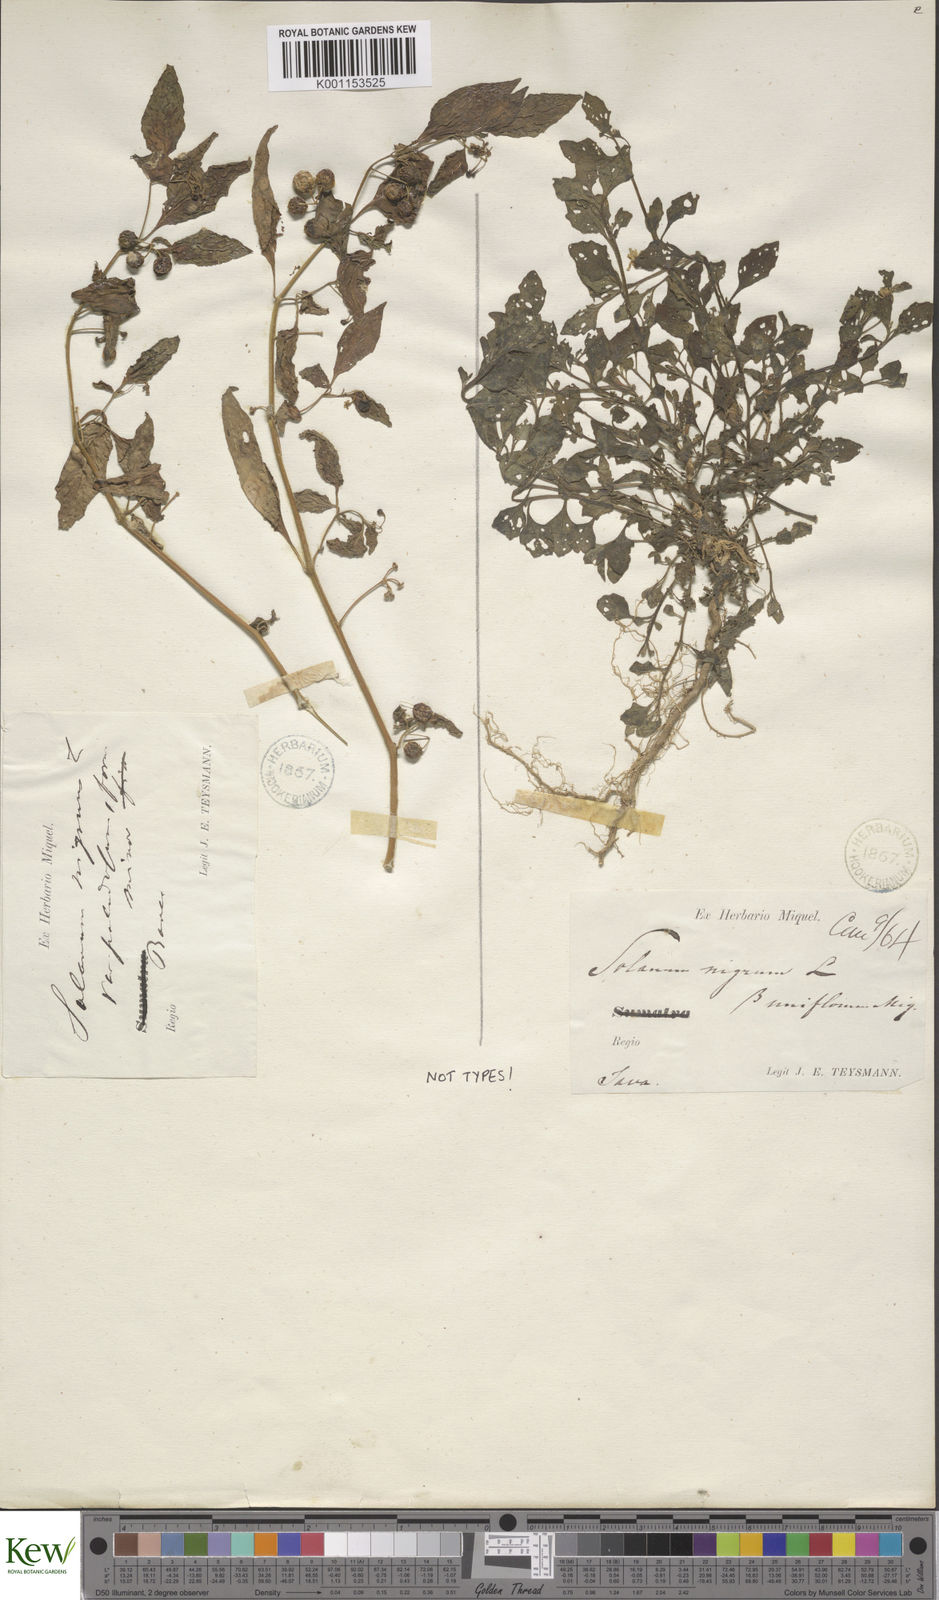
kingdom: Plantae
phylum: Tracheophyta
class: Magnoliopsida
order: Solanales
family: Solanaceae
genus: Solanum
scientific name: Solanum nigrum
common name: Black nightshade
